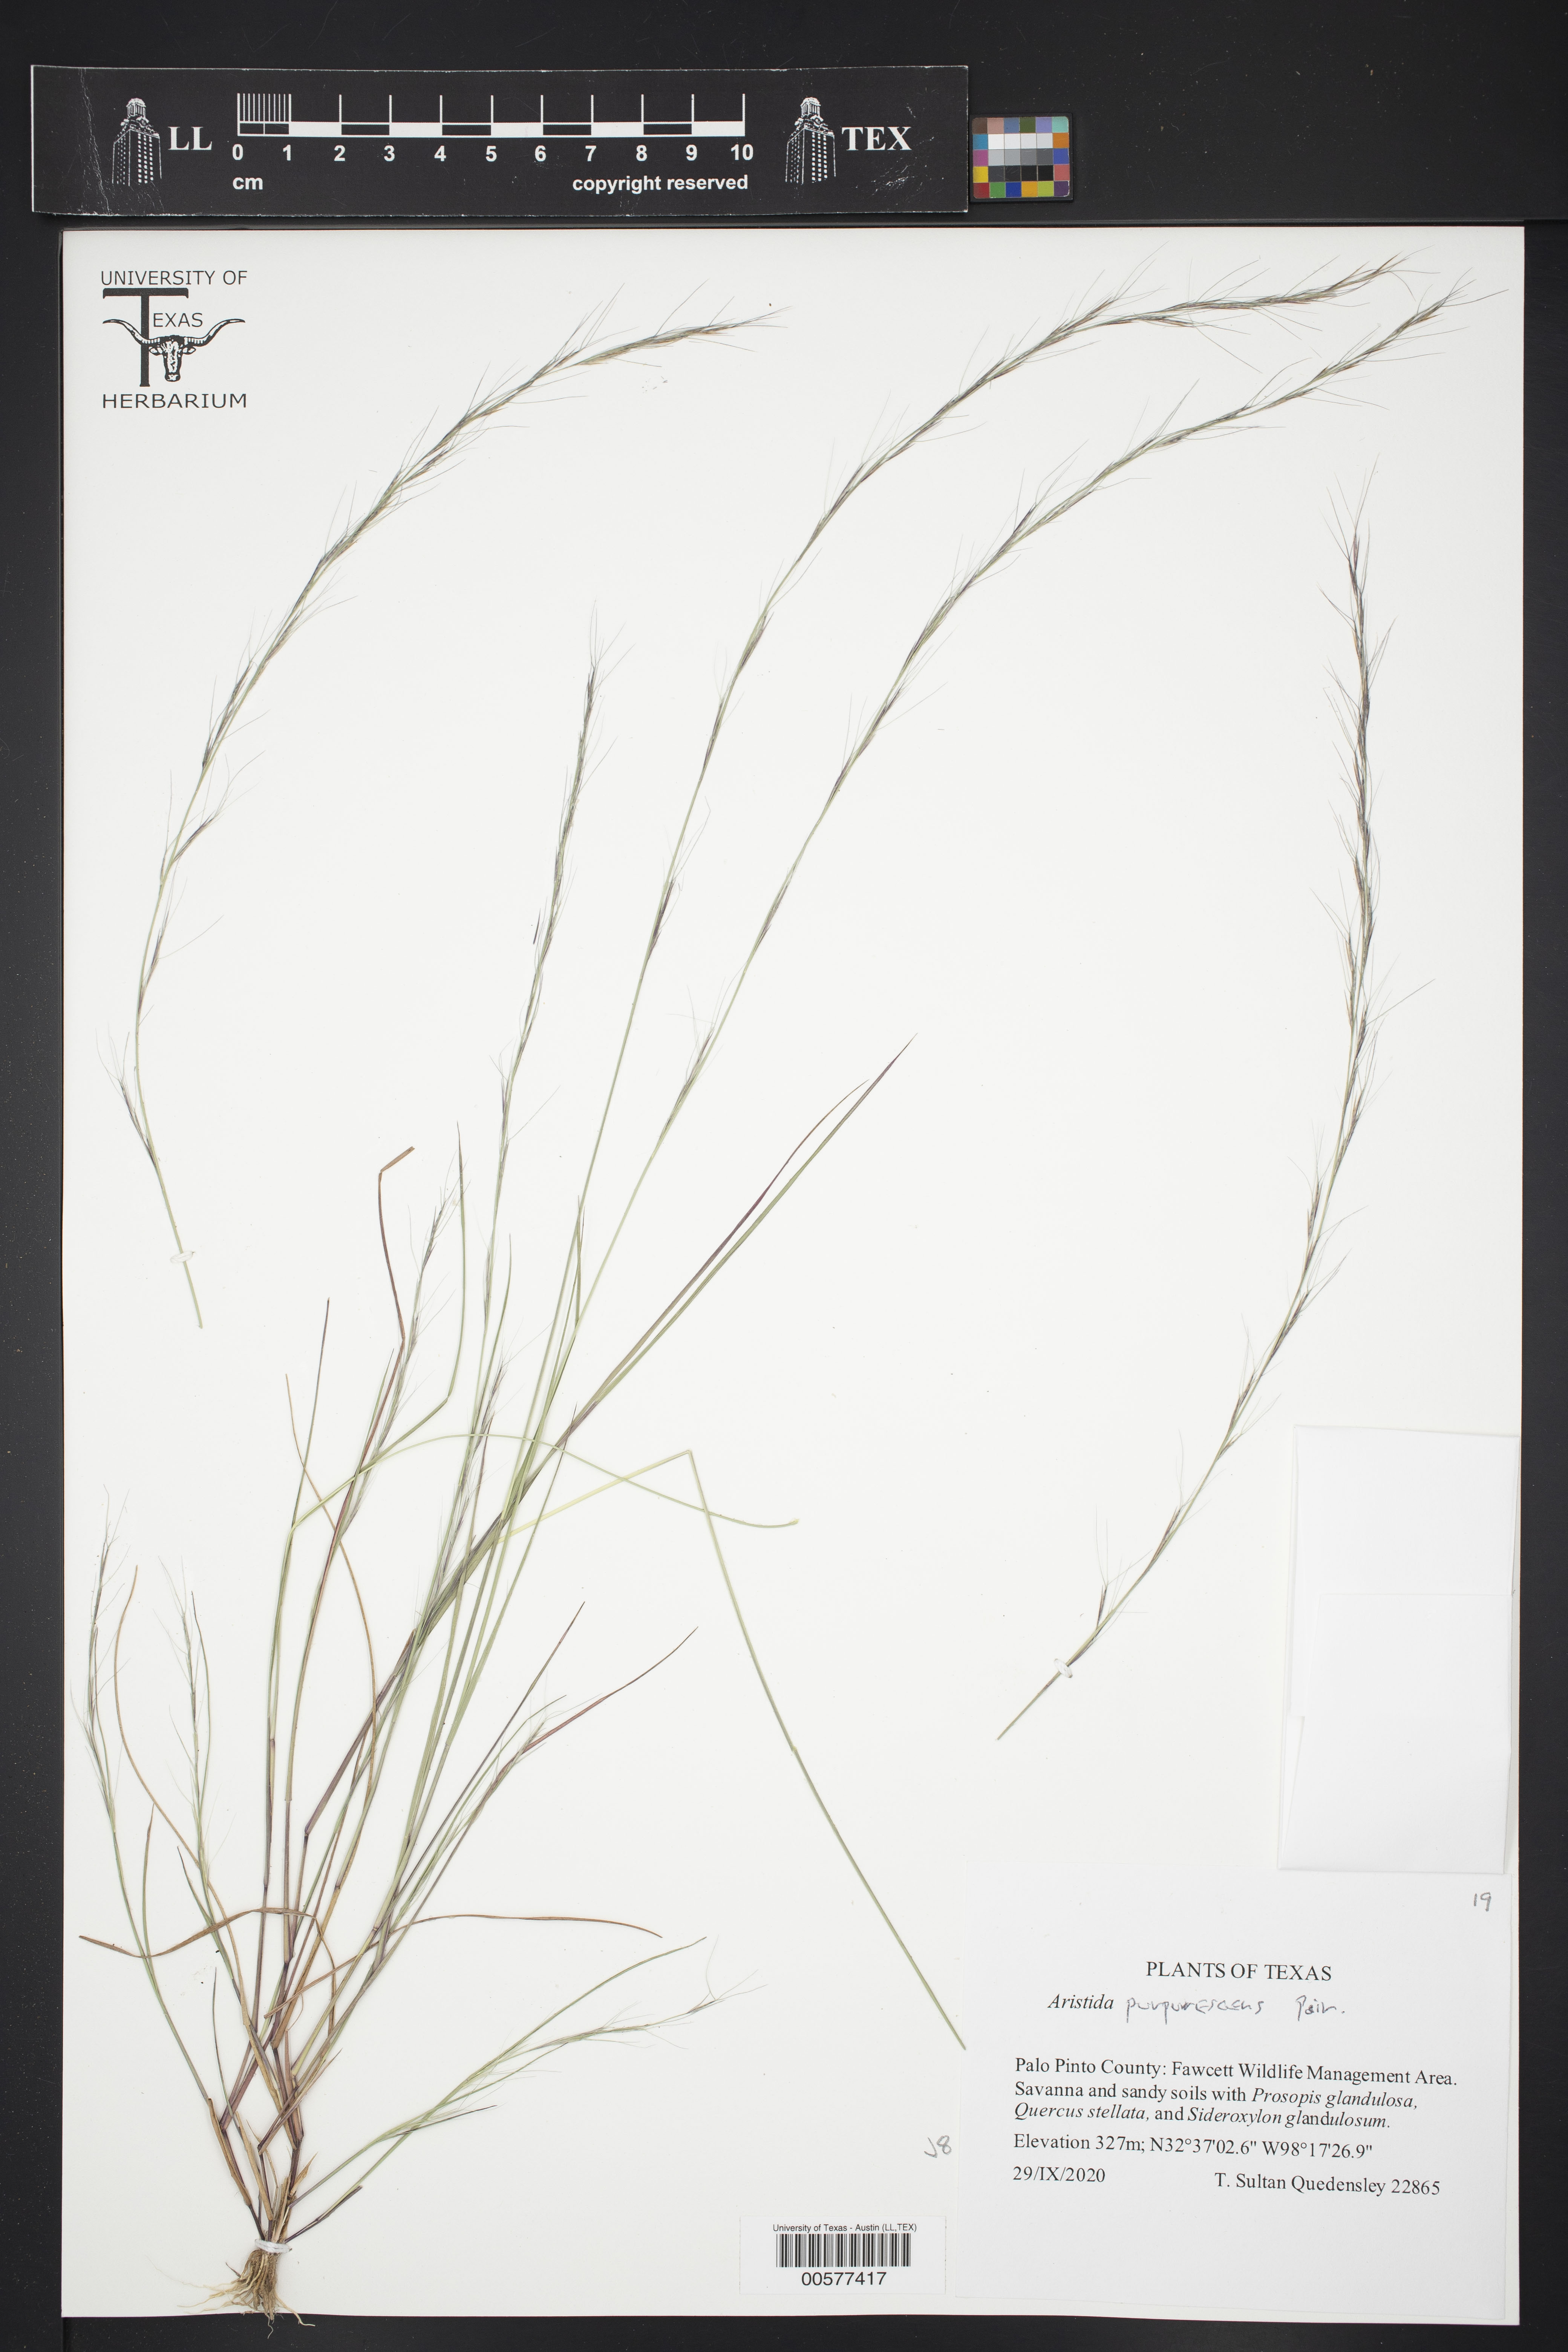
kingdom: Plantae
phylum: Tracheophyta
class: Liliopsida
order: Poales
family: Poaceae
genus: Aristida
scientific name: Aristida longespica
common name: Long-spiked triple-awned grass
